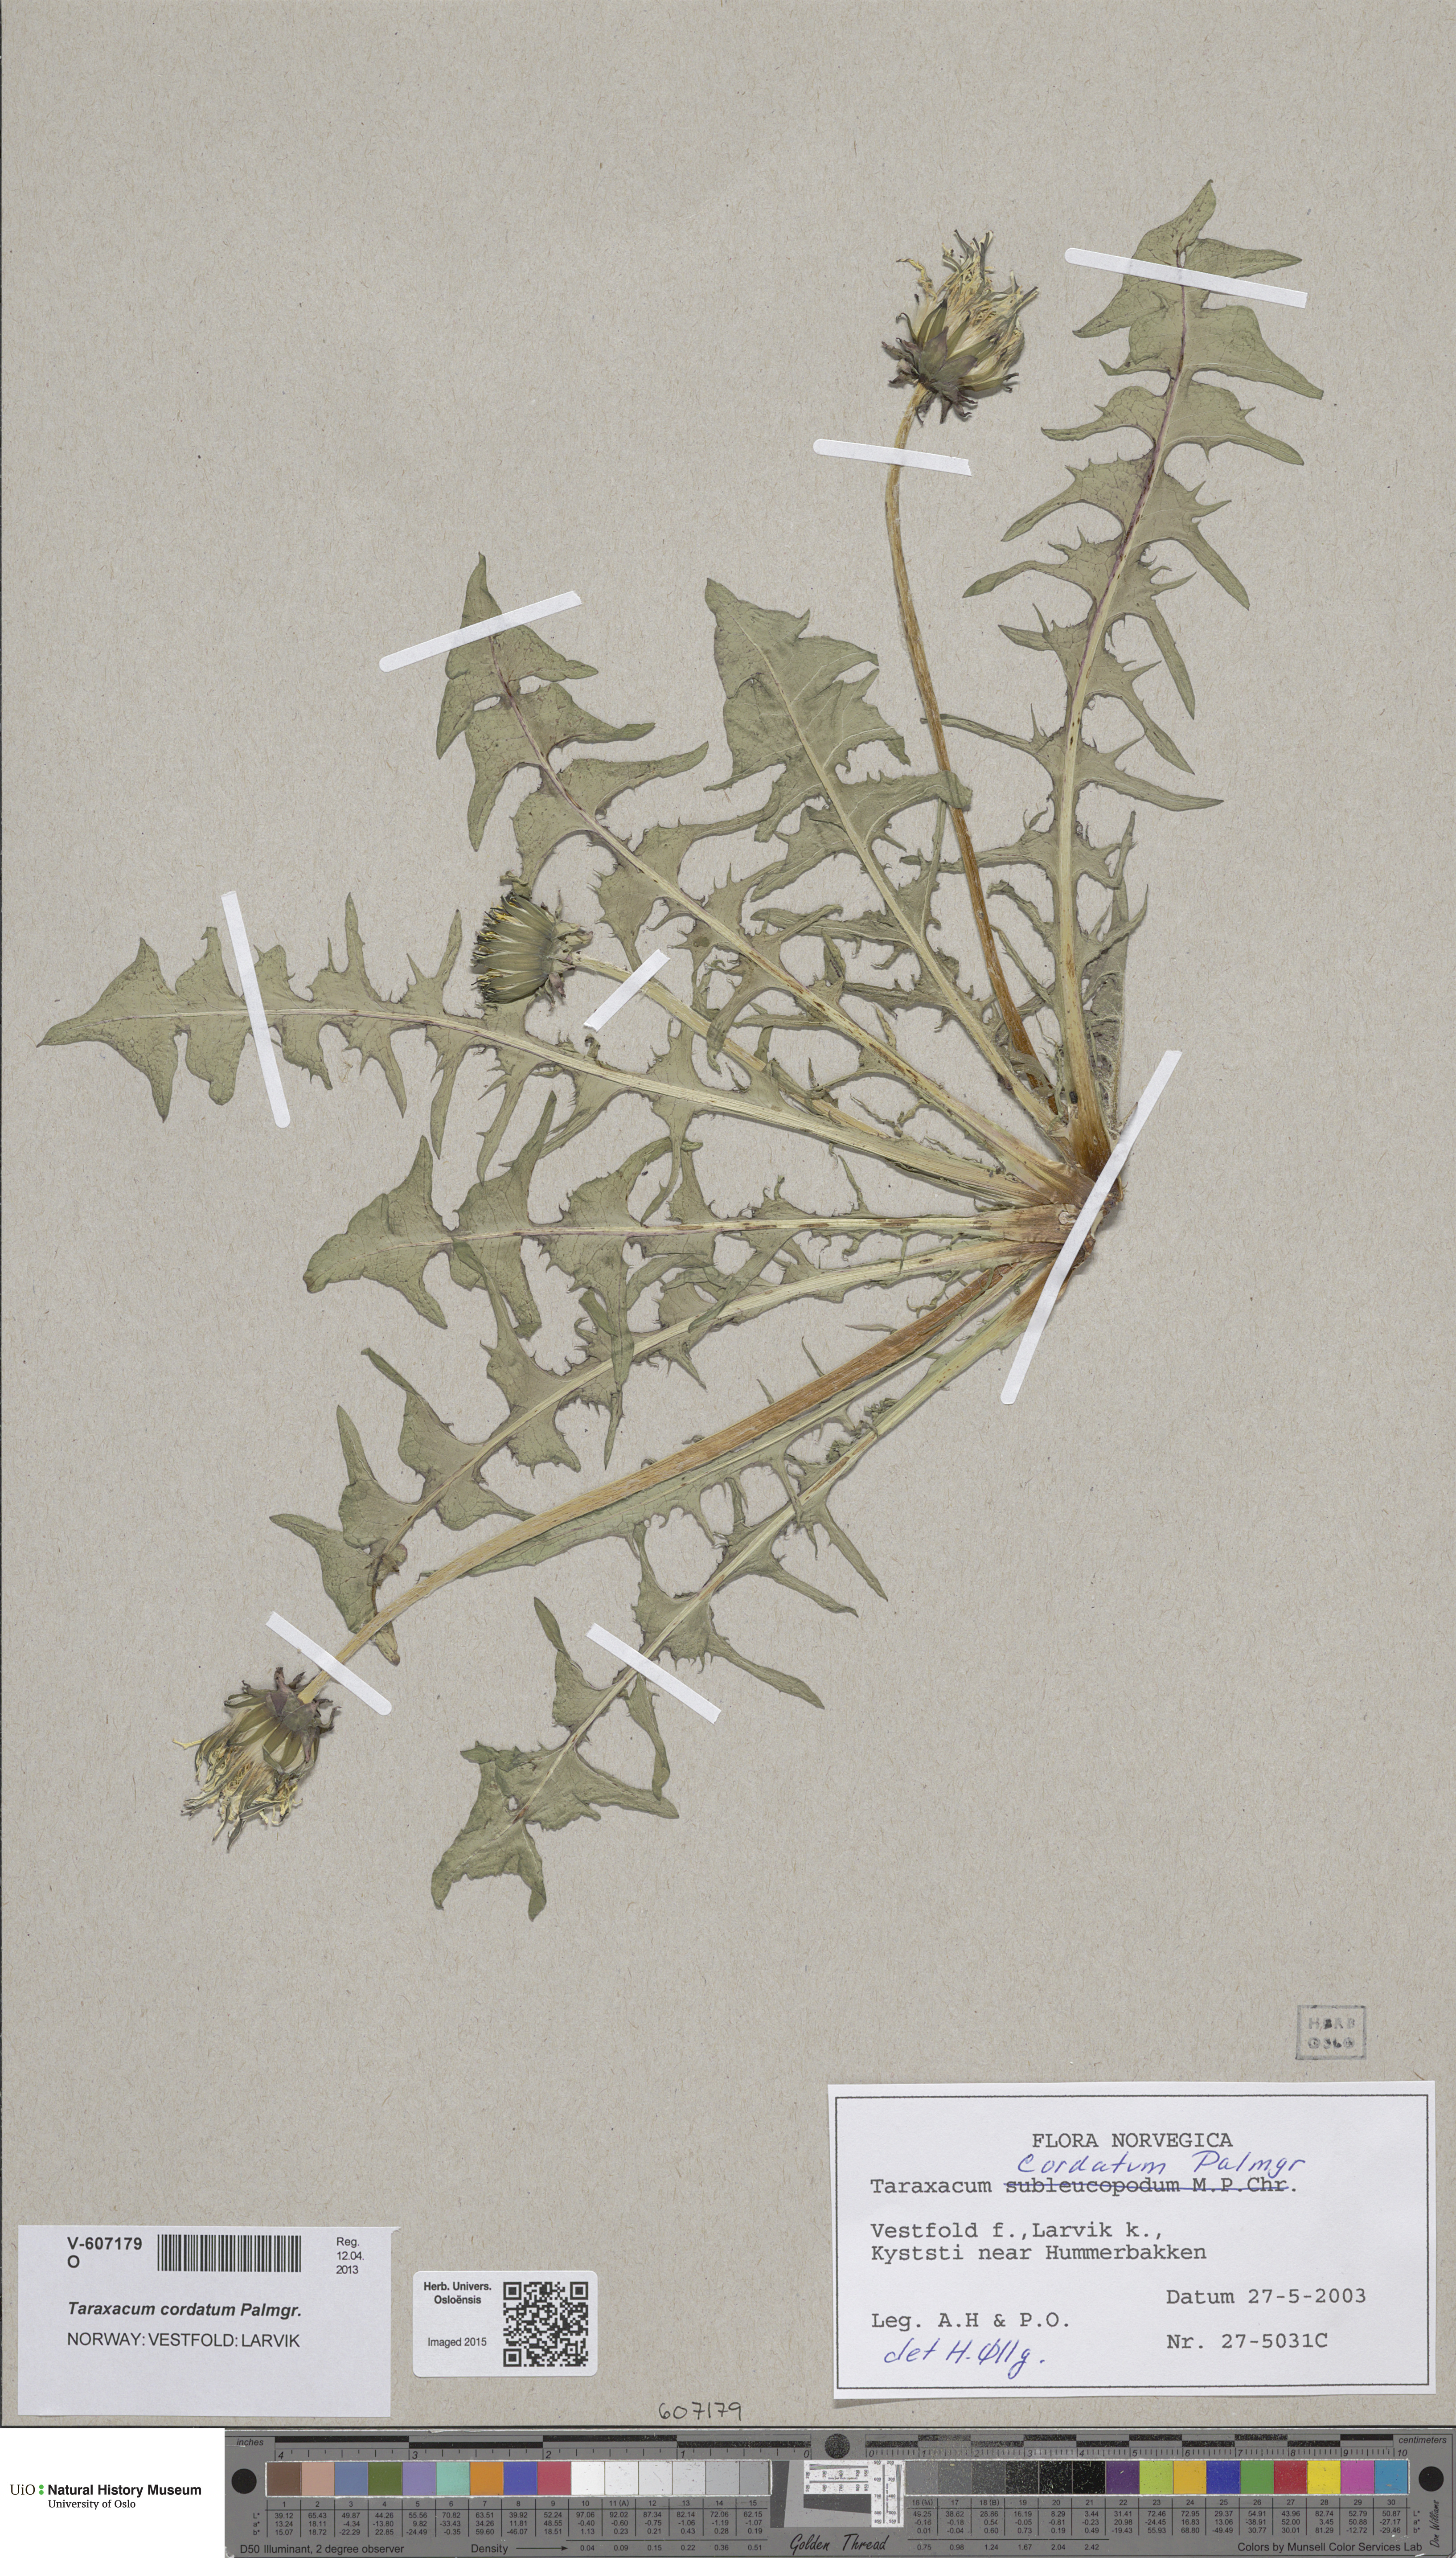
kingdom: Plantae
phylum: Tracheophyta
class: Magnoliopsida
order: Asterales
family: Asteraceae
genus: Taraxacum
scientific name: Taraxacum cordatum
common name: Entire-lobed dandelion
